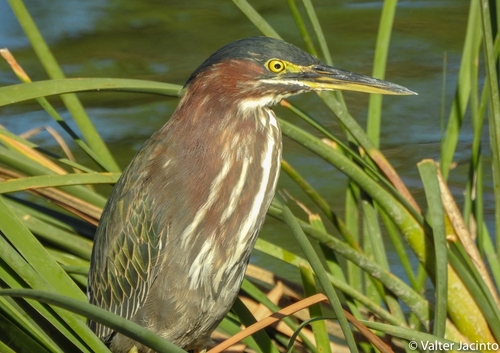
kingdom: Animalia
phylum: Chordata
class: Aves
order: Pelecaniformes
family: Ardeidae
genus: Butorides
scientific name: Butorides virescens
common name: Green heron
